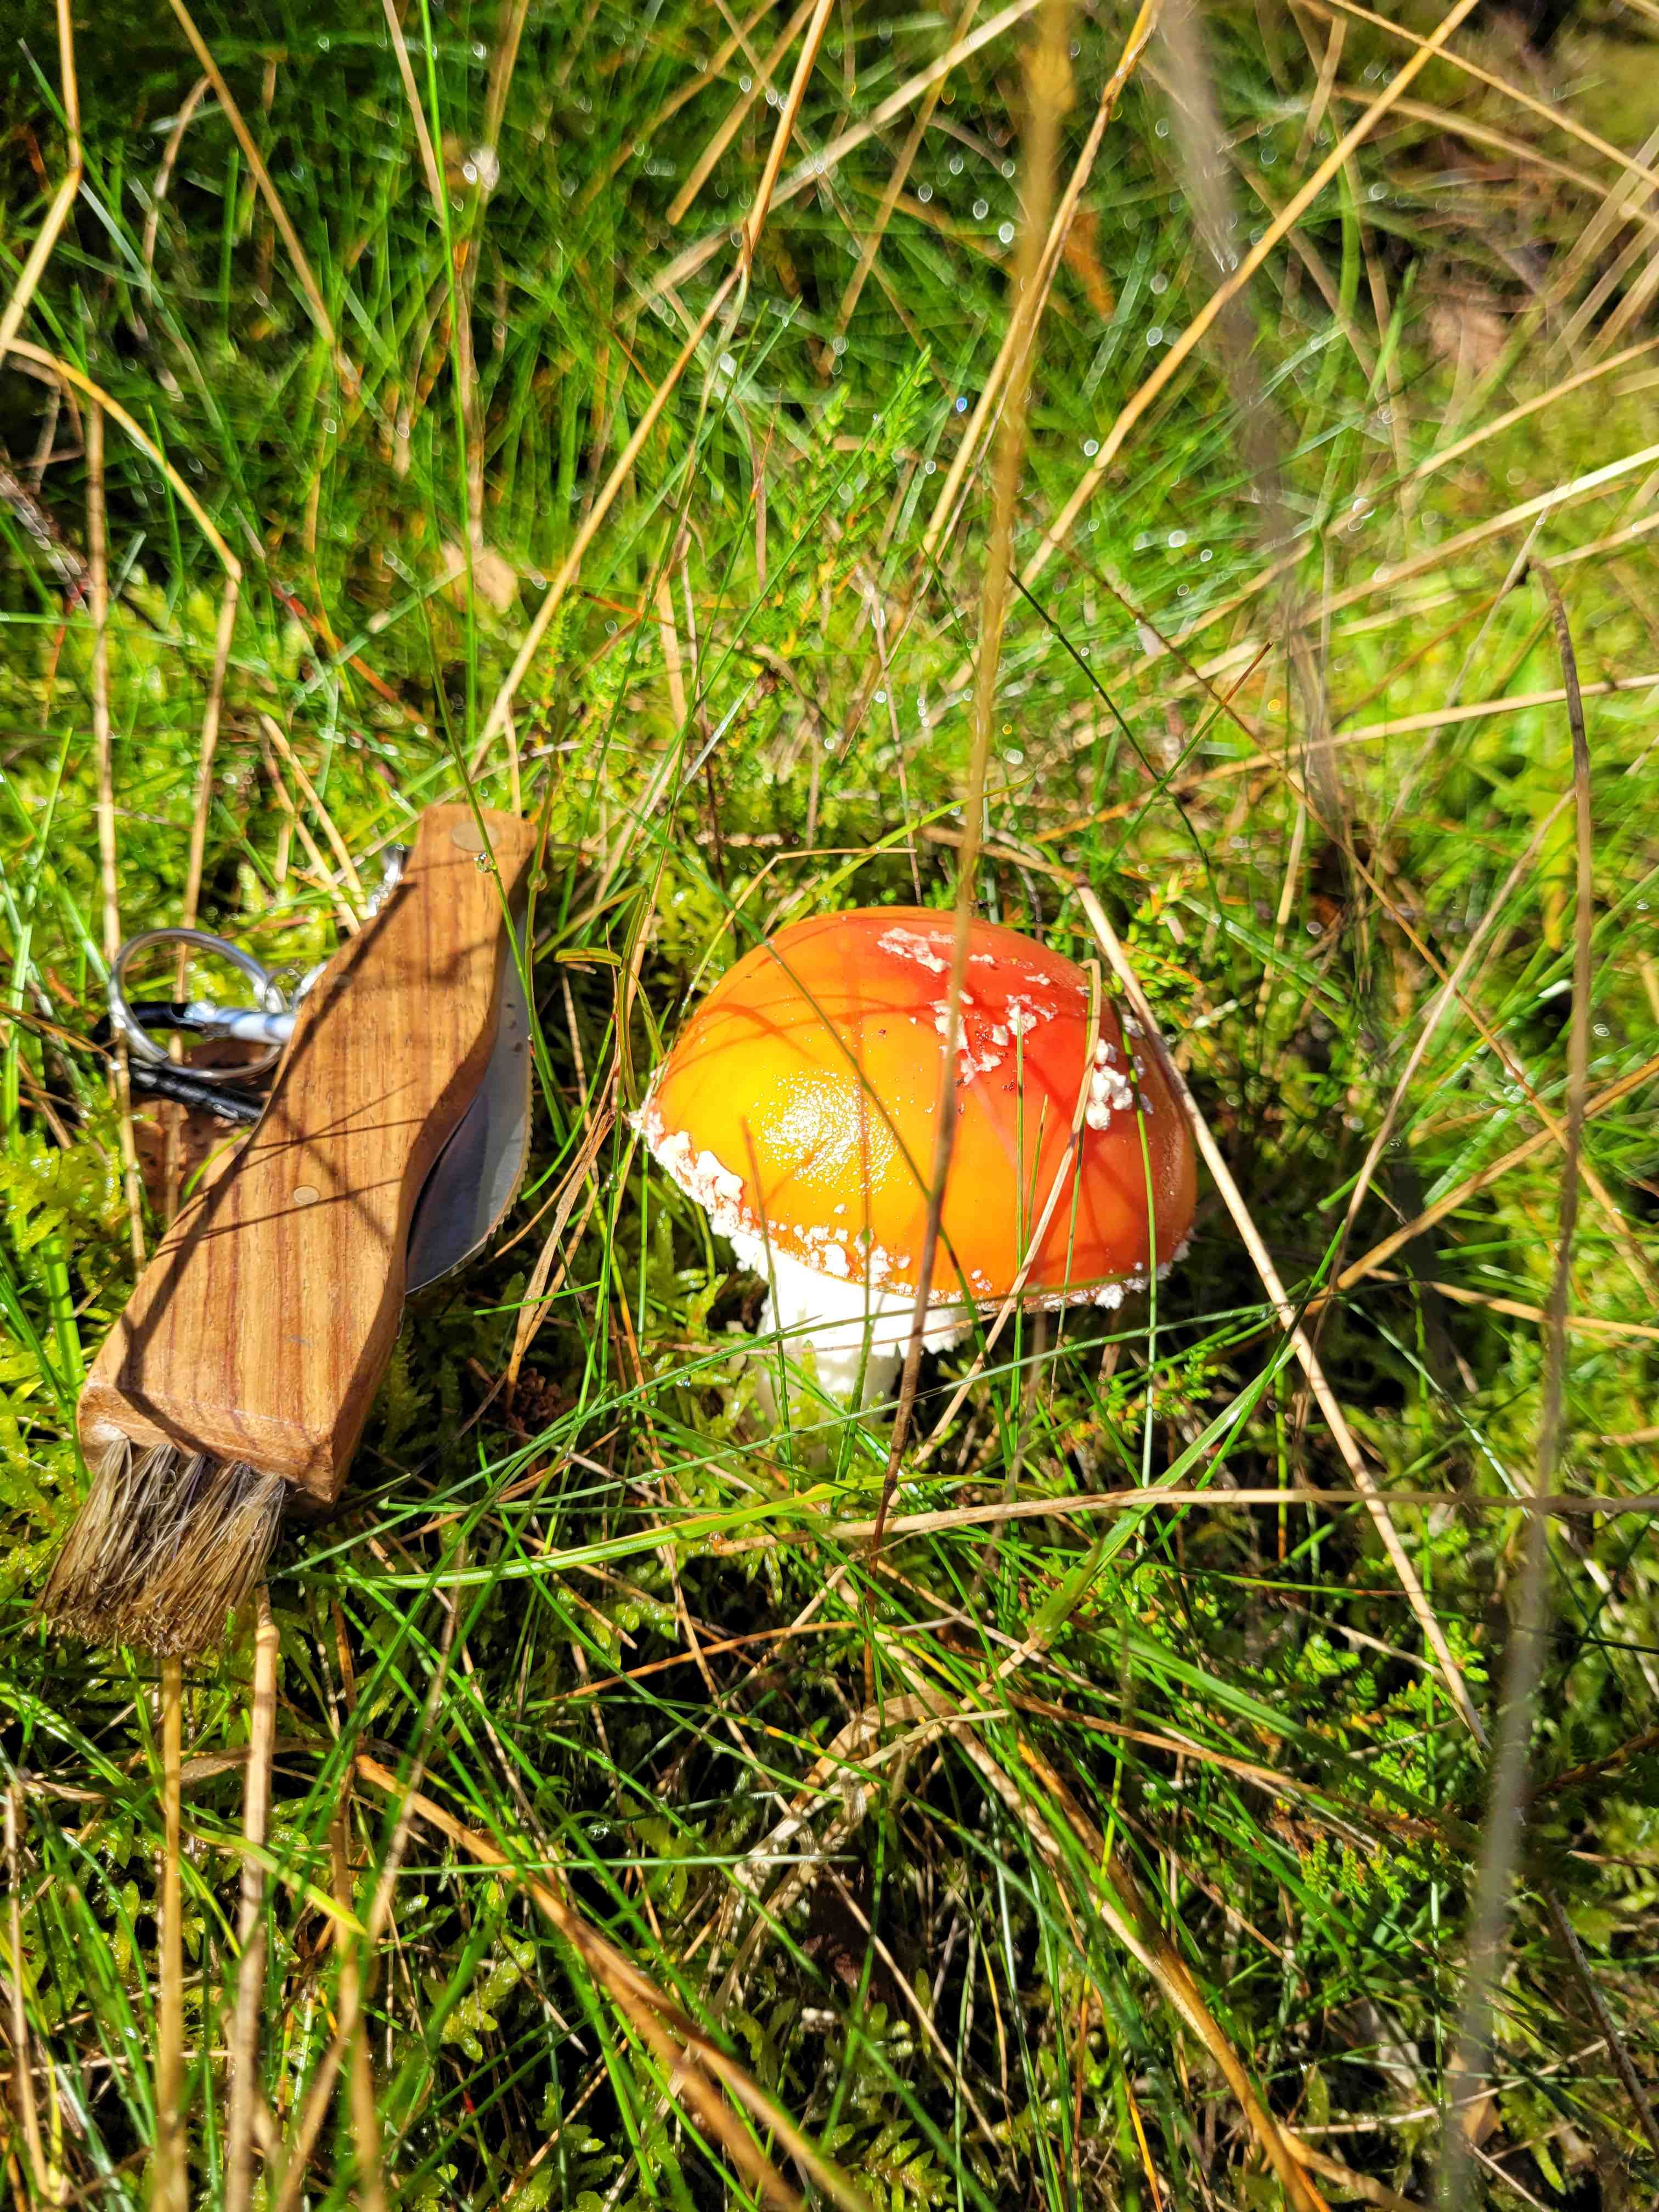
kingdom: Fungi
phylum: Basidiomycota
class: Agaricomycetes
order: Agaricales
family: Amanitaceae
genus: Amanita
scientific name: Amanita muscaria
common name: rød fluesvamp
